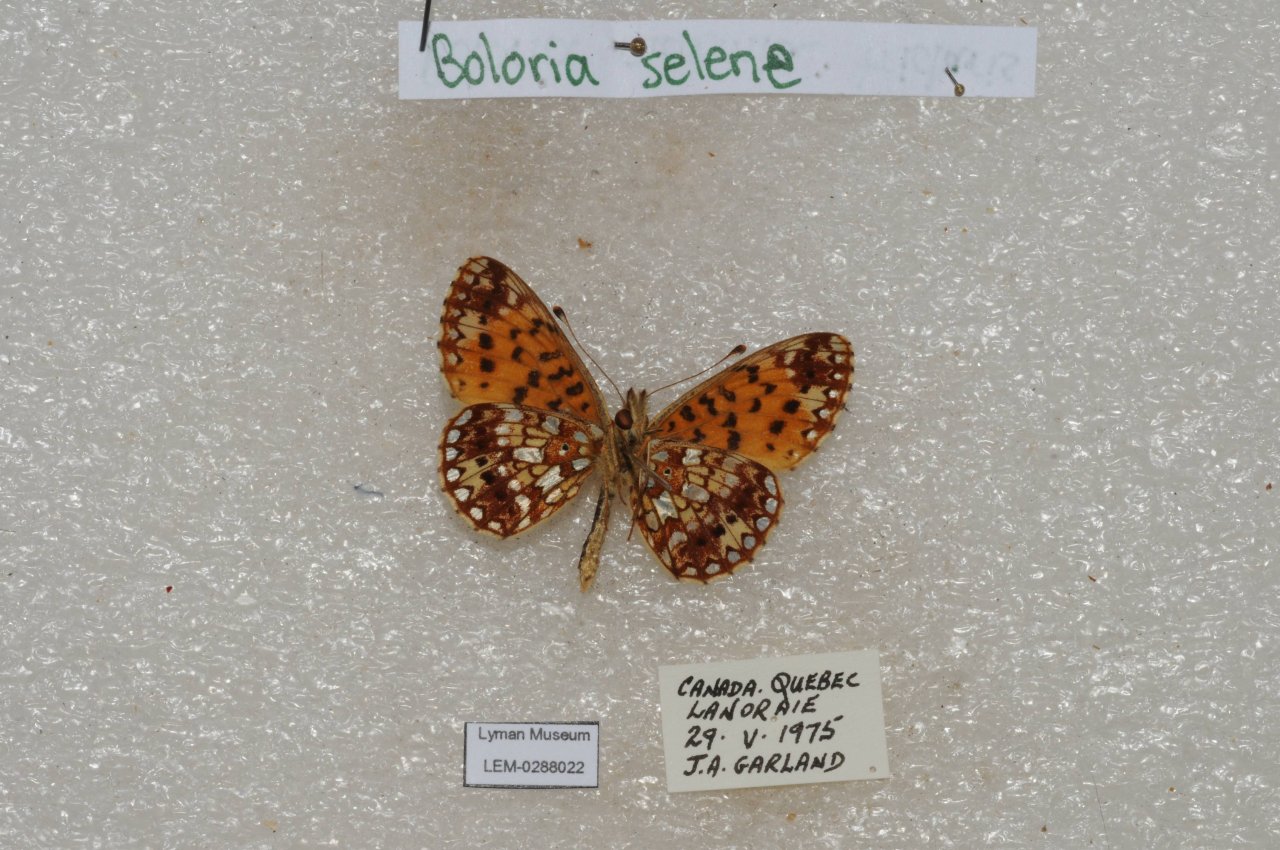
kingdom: Animalia
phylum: Arthropoda
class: Insecta
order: Lepidoptera
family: Nymphalidae
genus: Boloria
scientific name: Boloria selene
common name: Silver-bordered Fritillary
